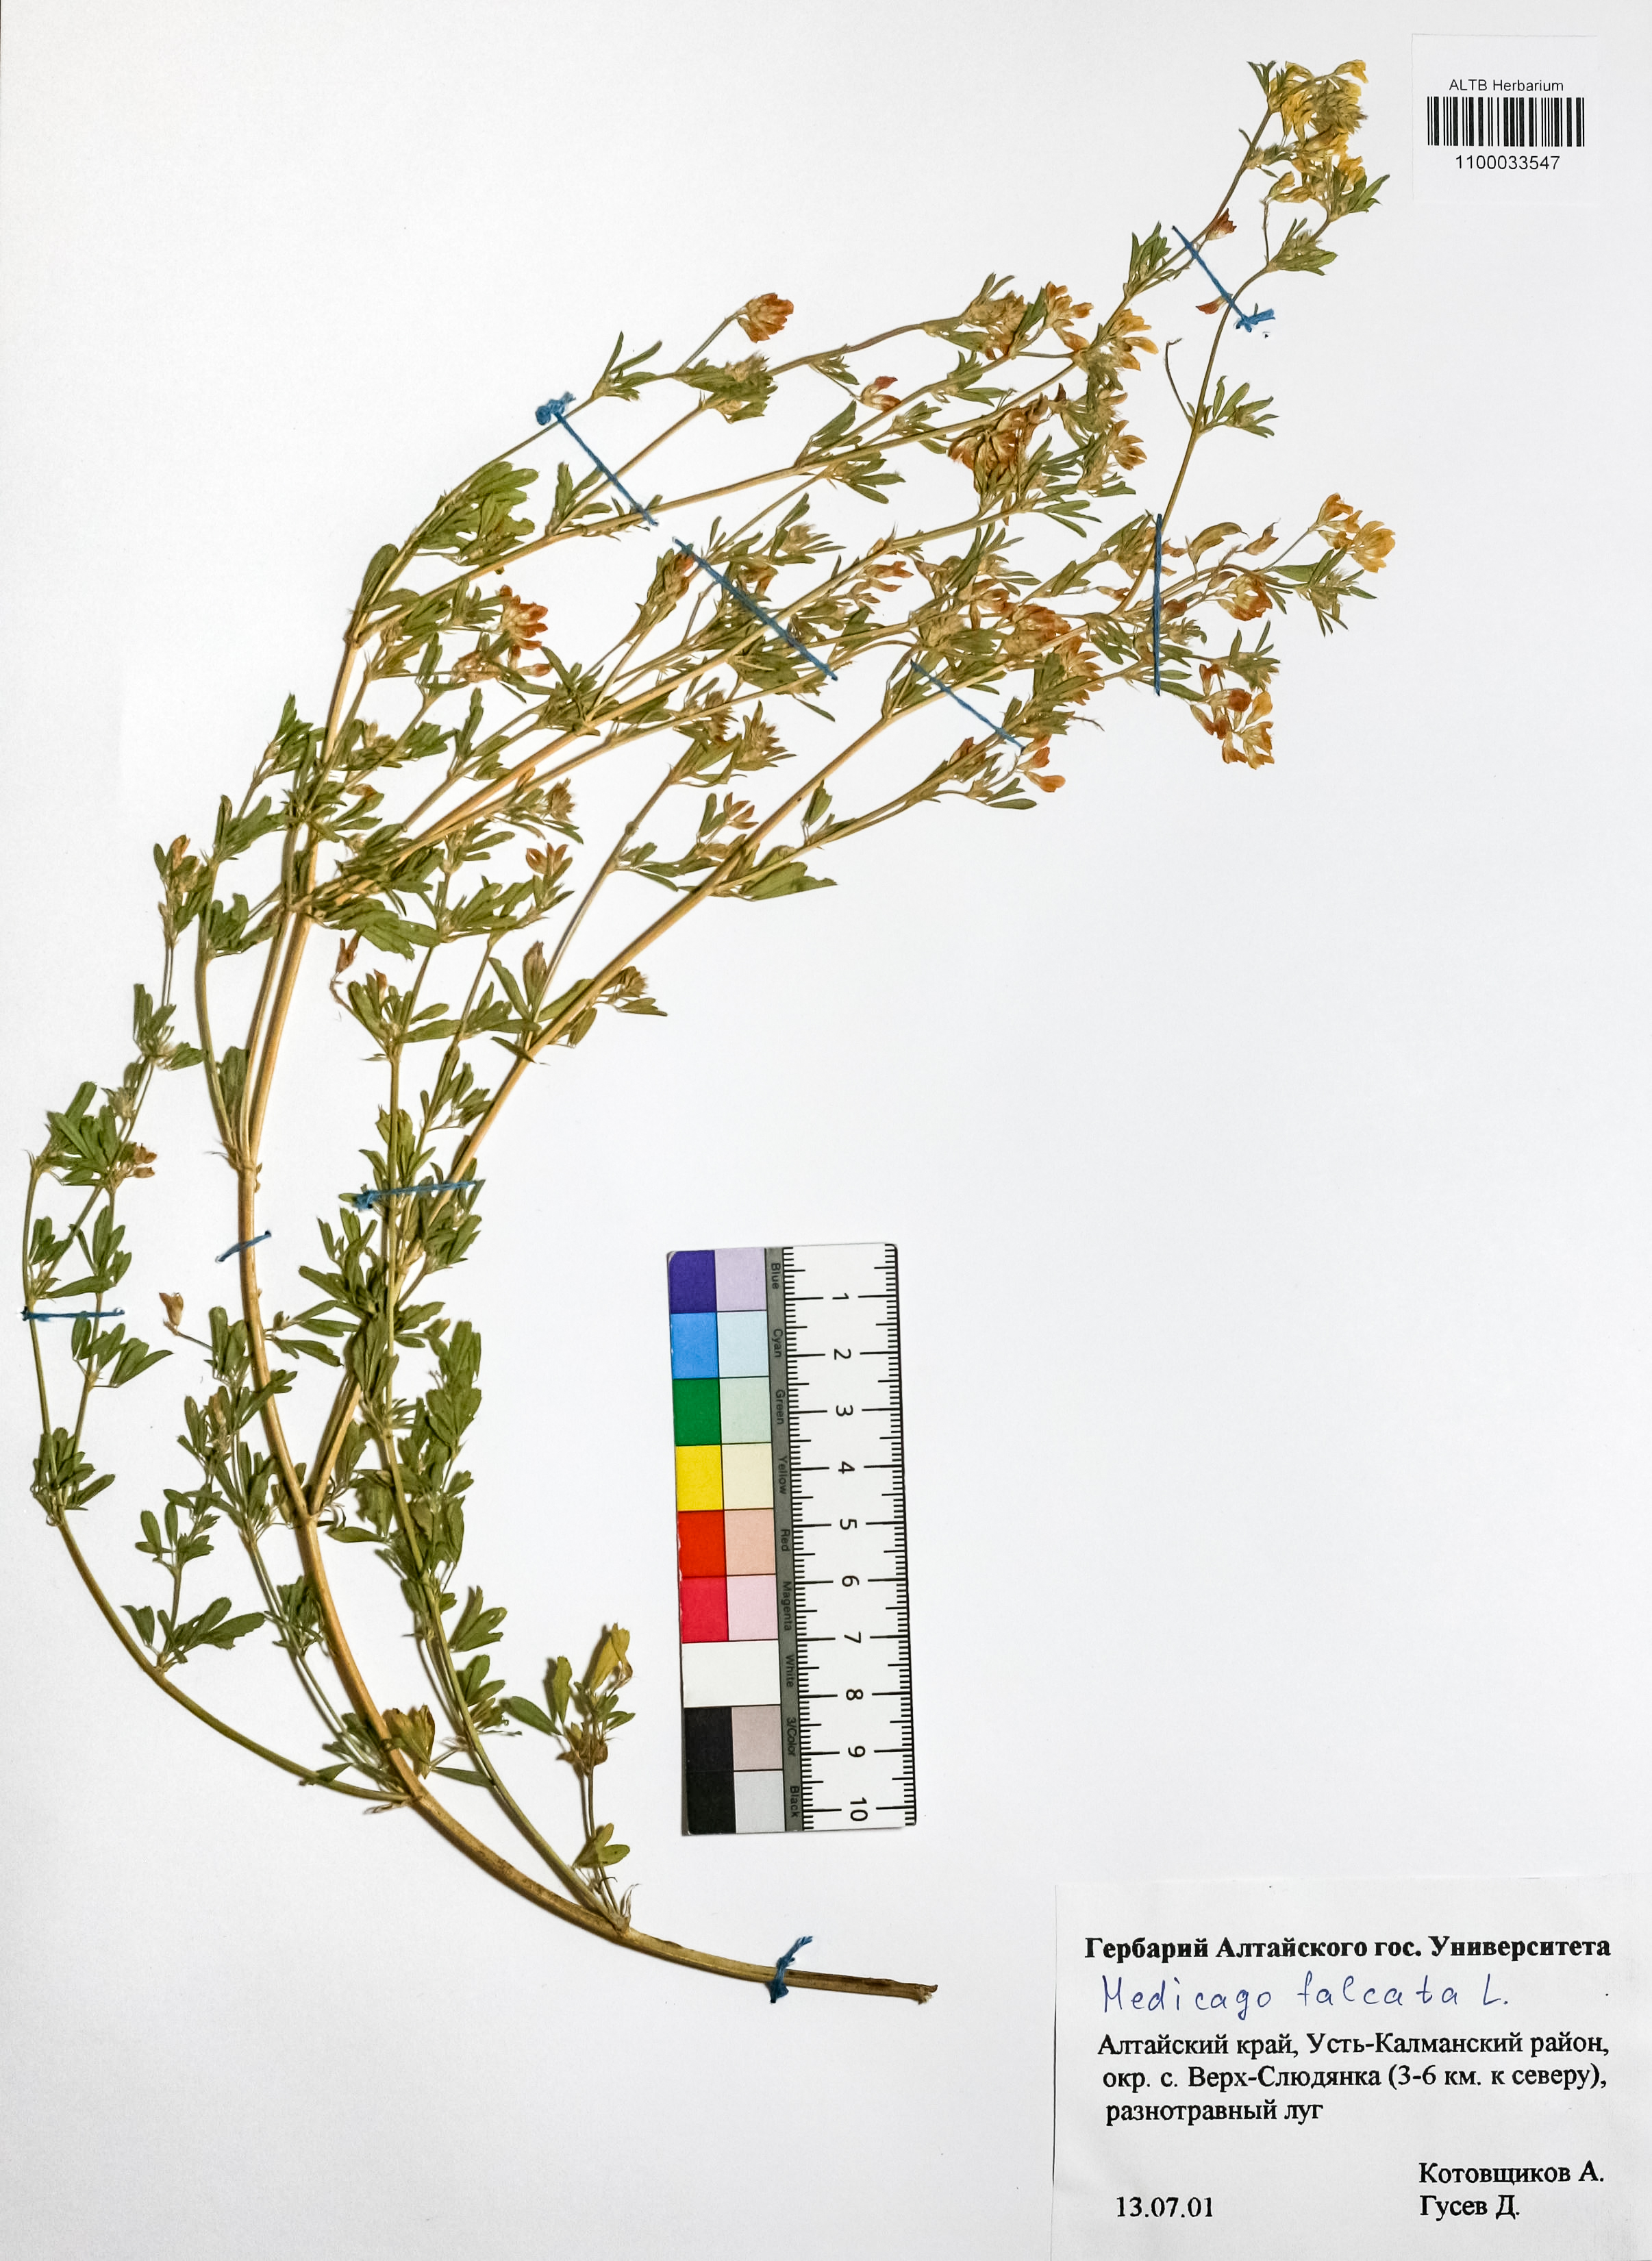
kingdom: Plantae
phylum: Tracheophyta
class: Magnoliopsida
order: Fabales
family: Fabaceae
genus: Medicago
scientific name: Medicago falcata
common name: Sickle medick
